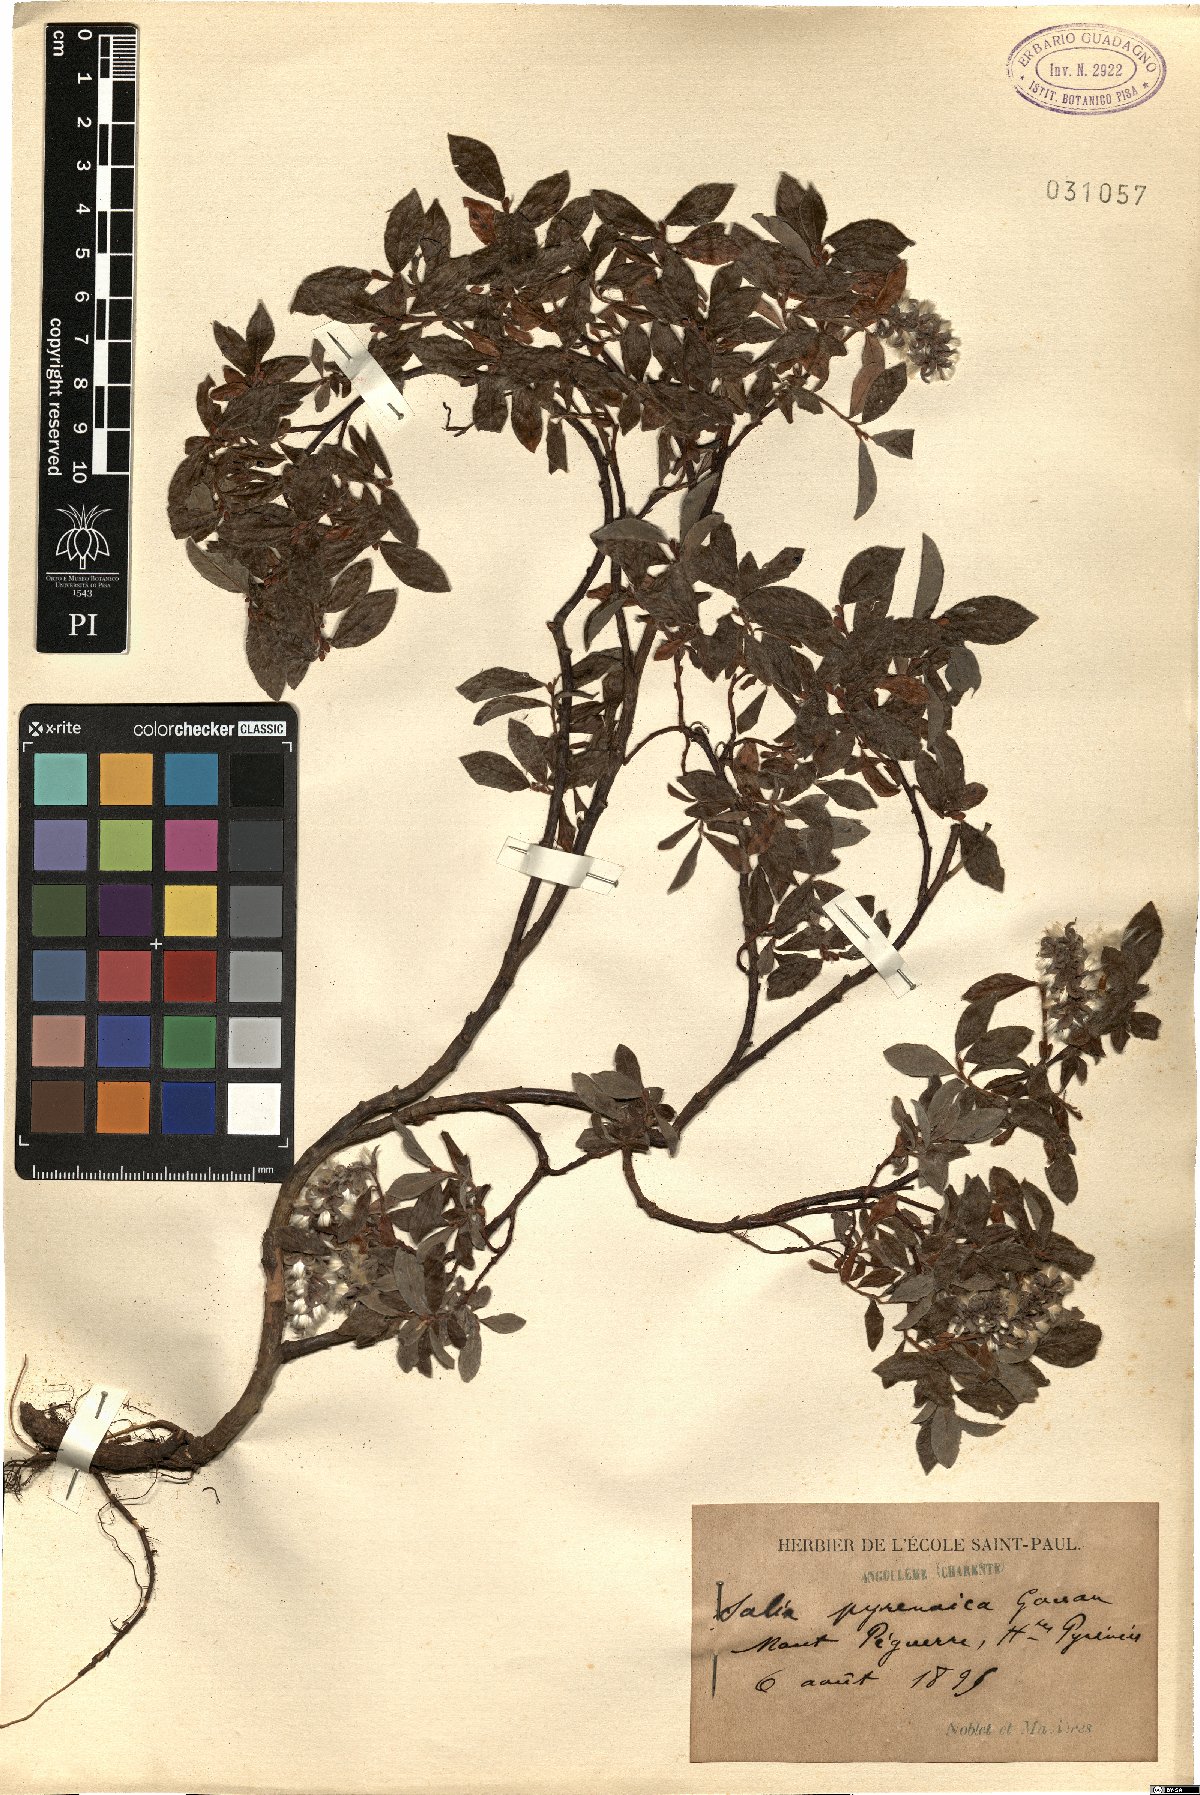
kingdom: Plantae
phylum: Tracheophyta
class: Magnoliopsida
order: Malpighiales
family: Salicaceae
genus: Salix
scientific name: Salix pyrenaica
